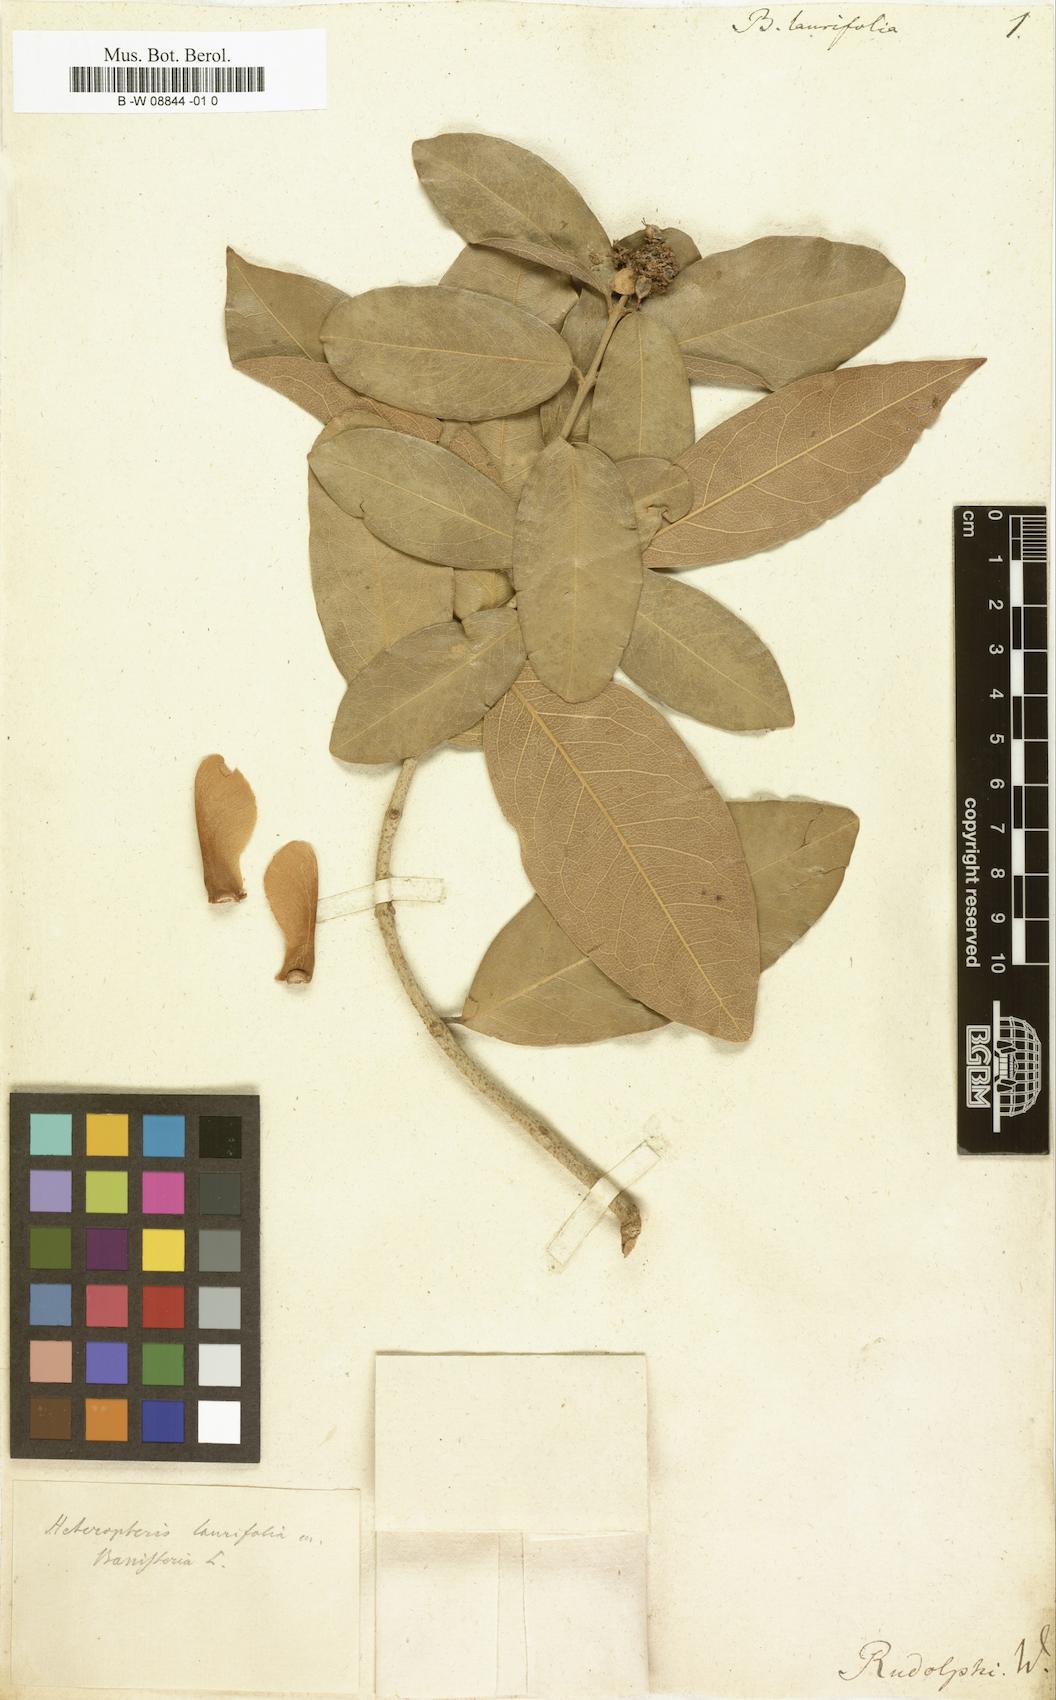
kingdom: Plantae
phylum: Tracheophyta
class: Magnoliopsida
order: Malpighiales
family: Malpighiaceae
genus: Heteropterys
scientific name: Heteropterys laurifolia
